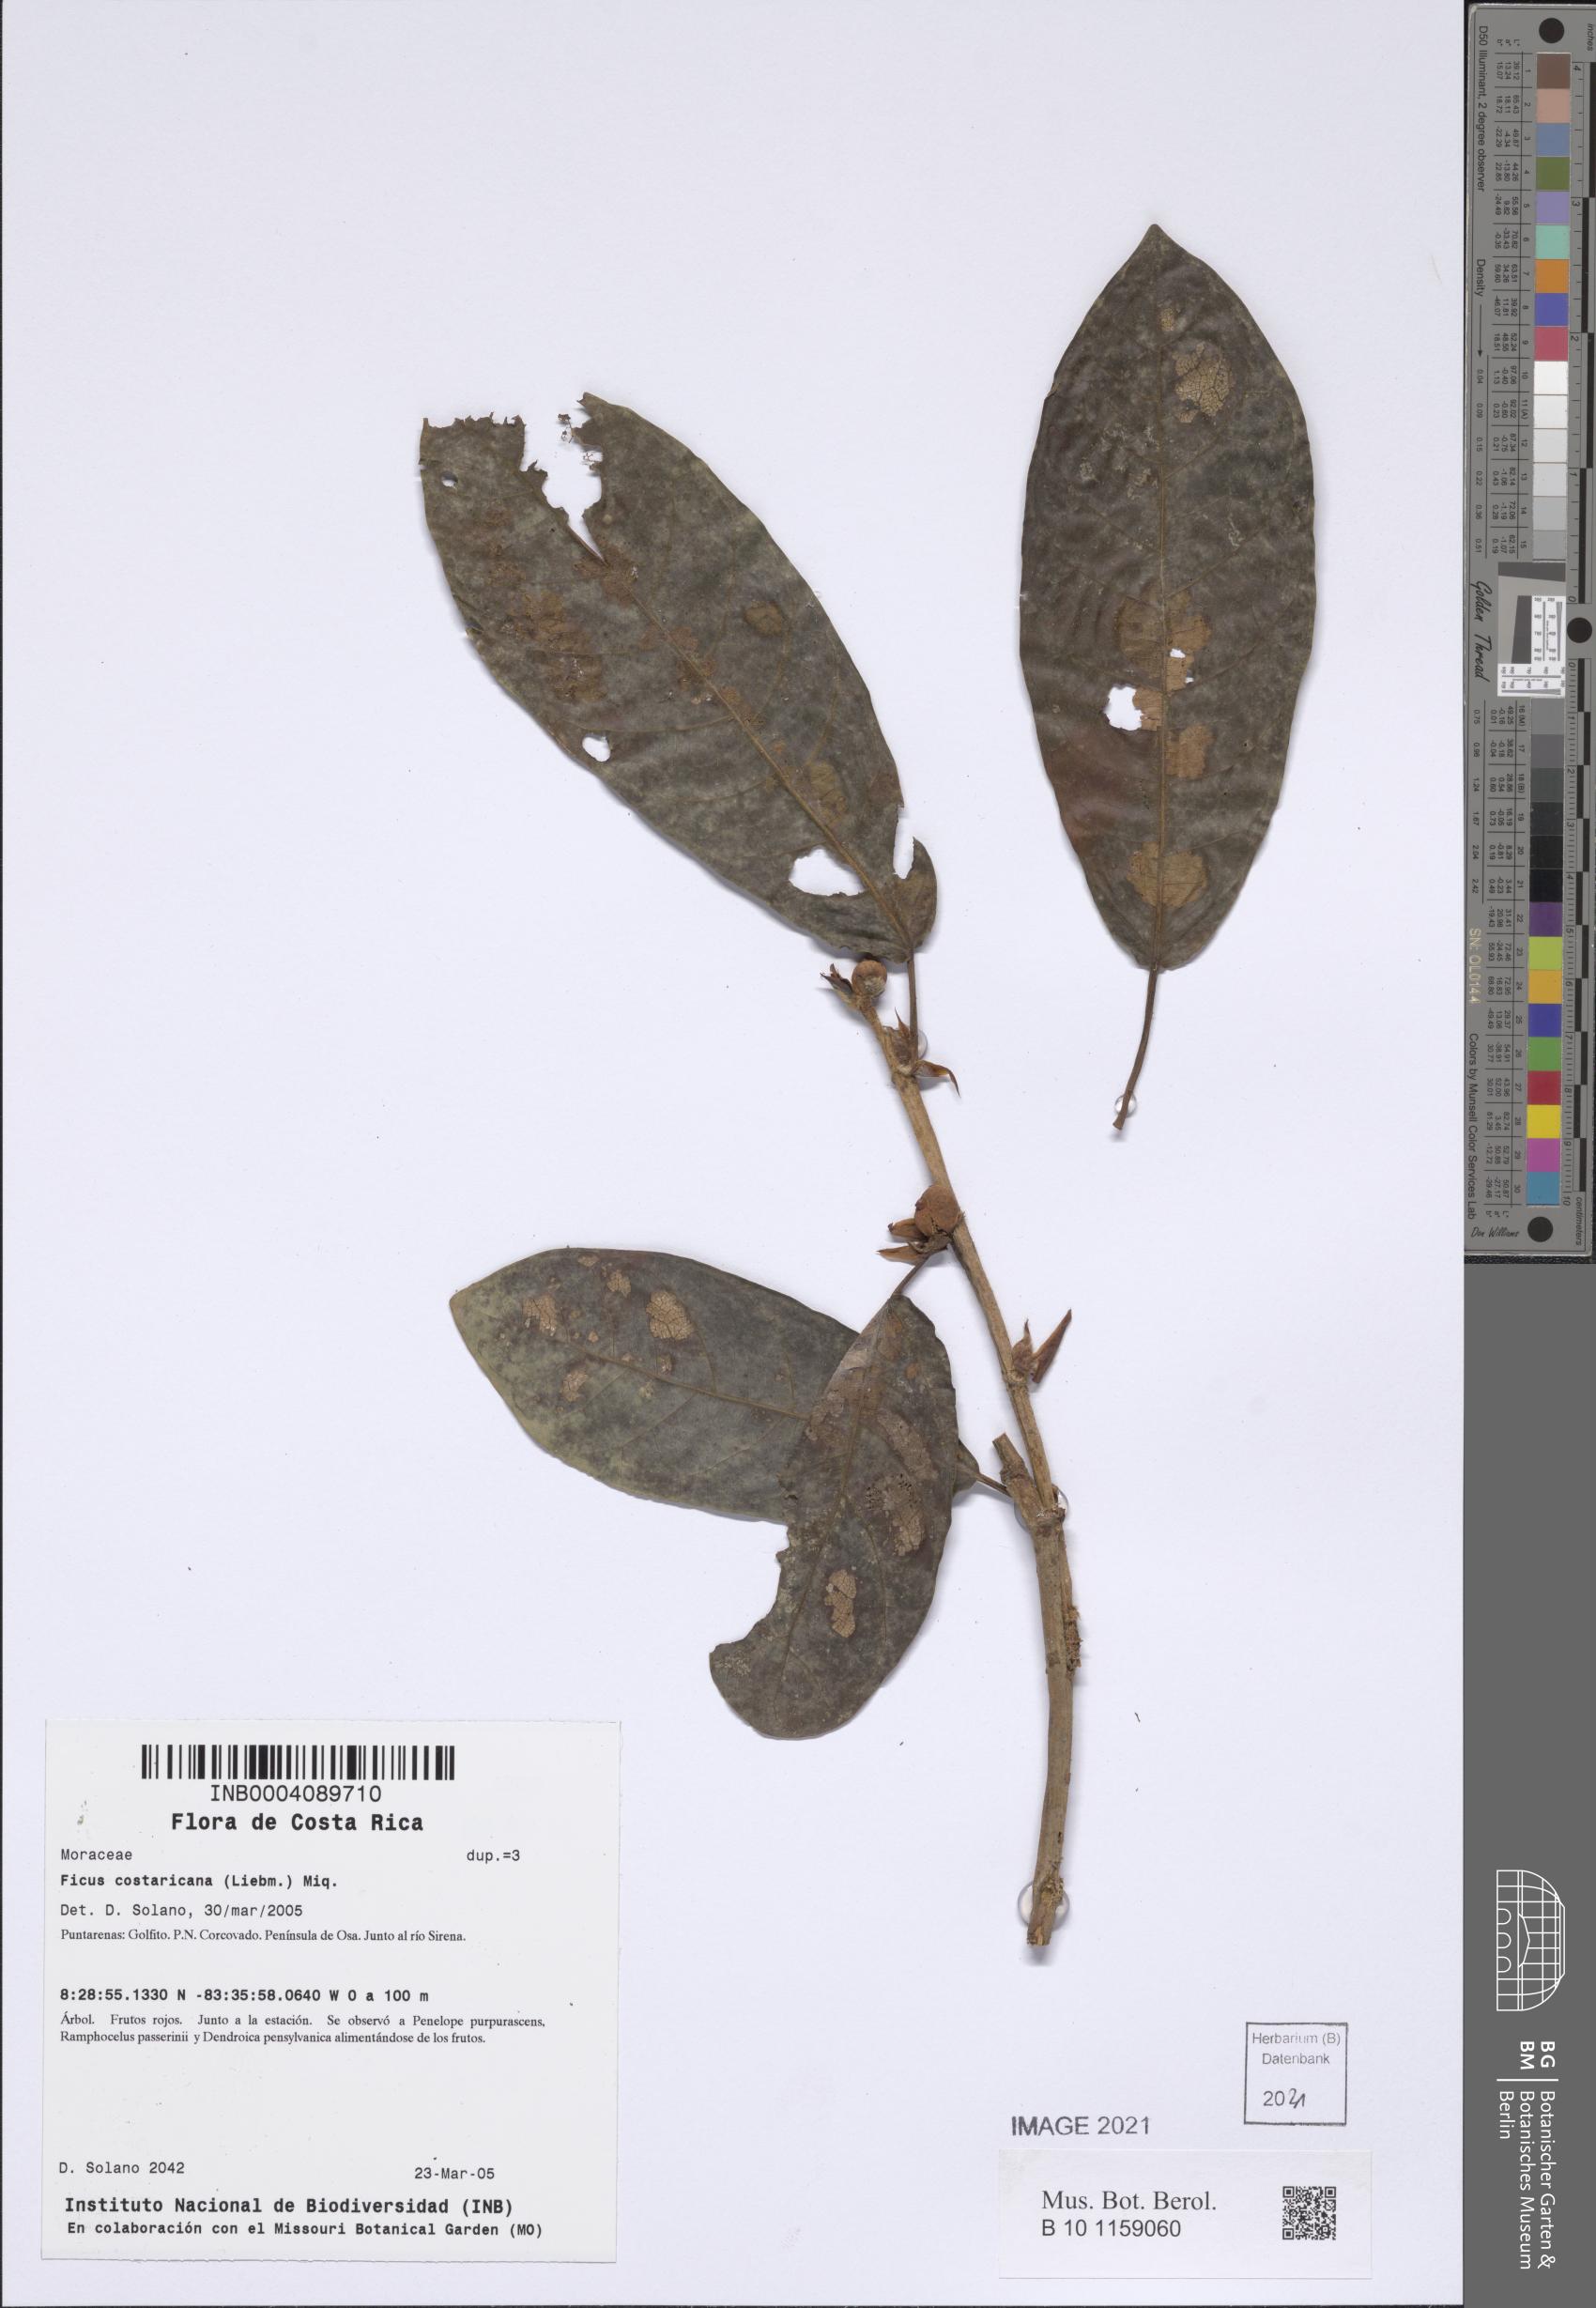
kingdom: Plantae
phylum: Tracheophyta
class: Magnoliopsida
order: Rosales
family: Moraceae
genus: Ficus
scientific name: Ficus costaricana
